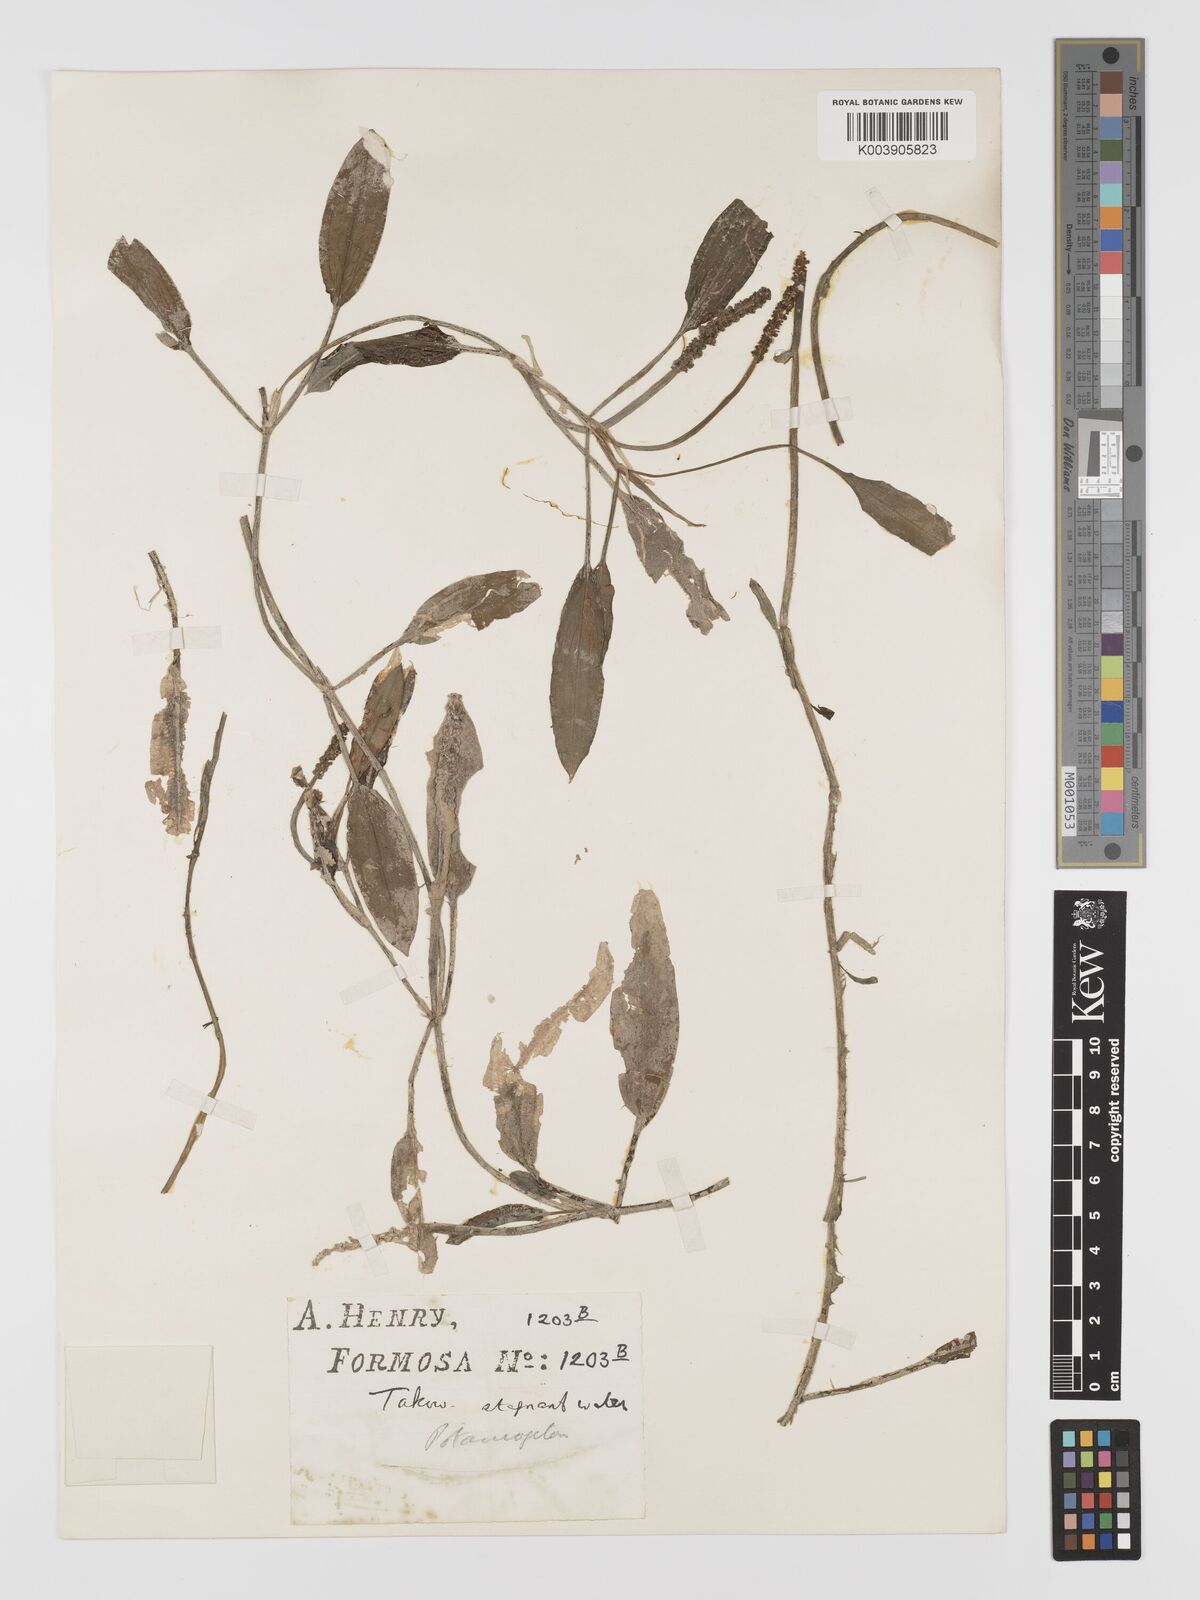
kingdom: Plantae
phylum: Tracheophyta
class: Liliopsida
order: Alismatales
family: Potamogetonaceae
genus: Potamogeton
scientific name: Potamogeton nodosus
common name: Loddon pondweed
